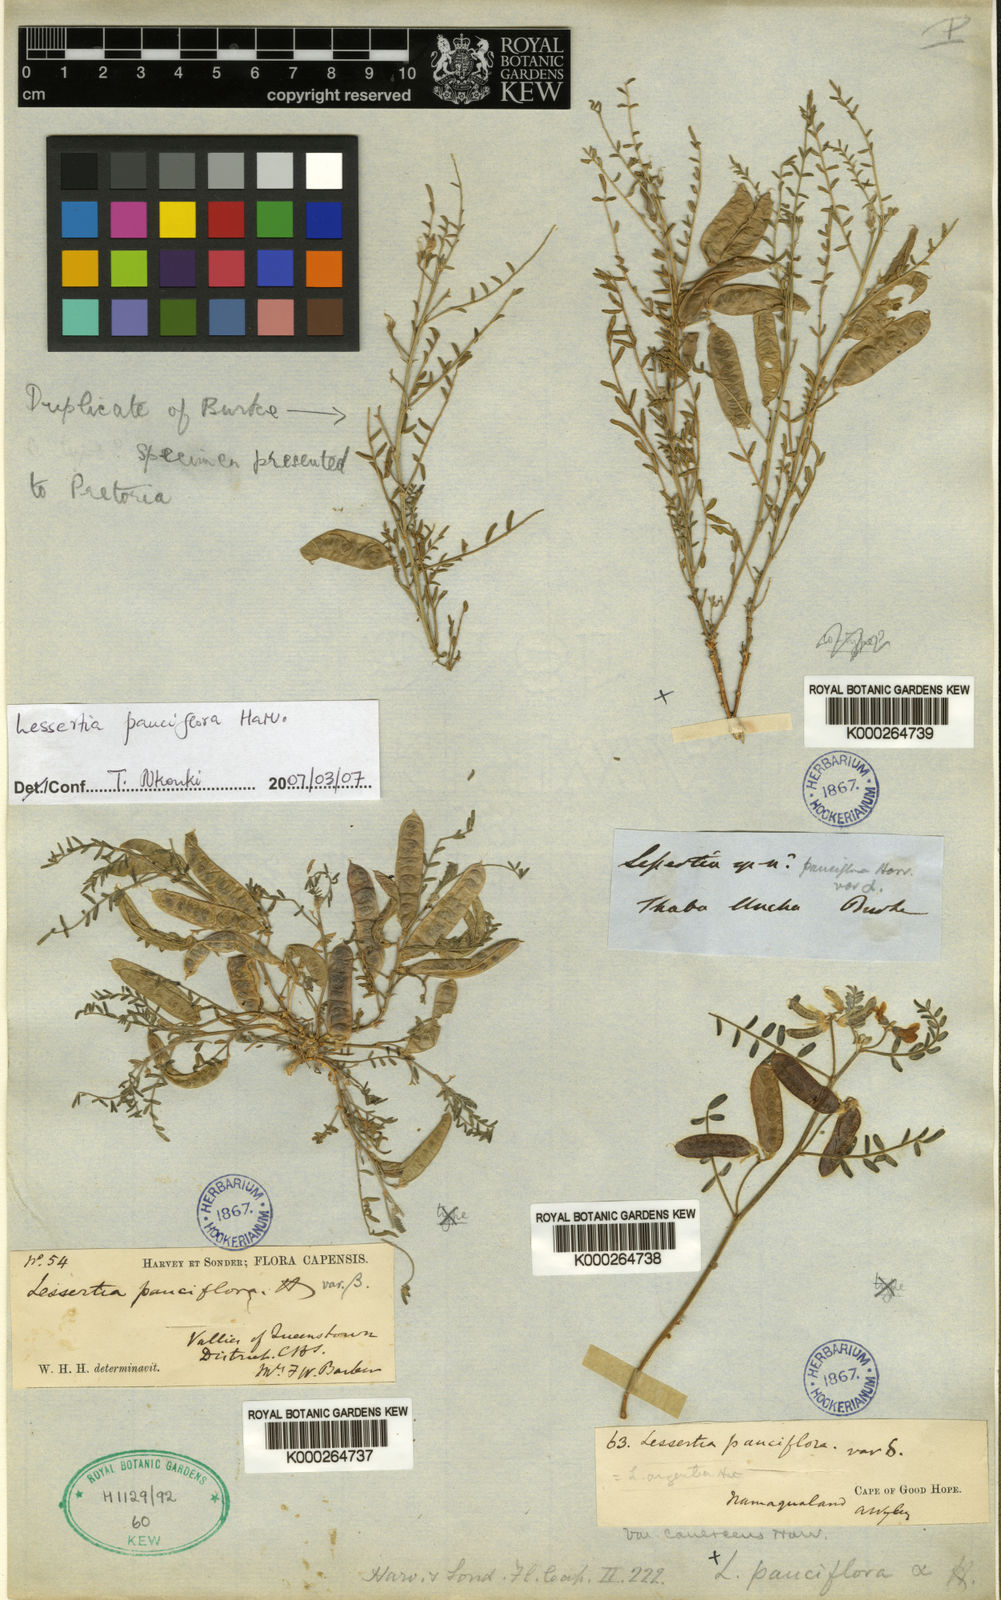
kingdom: Plantae
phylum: Tracheophyta
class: Magnoliopsida
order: Fabales
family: Fabaceae
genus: Lessertia
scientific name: Lessertia pauciflora
